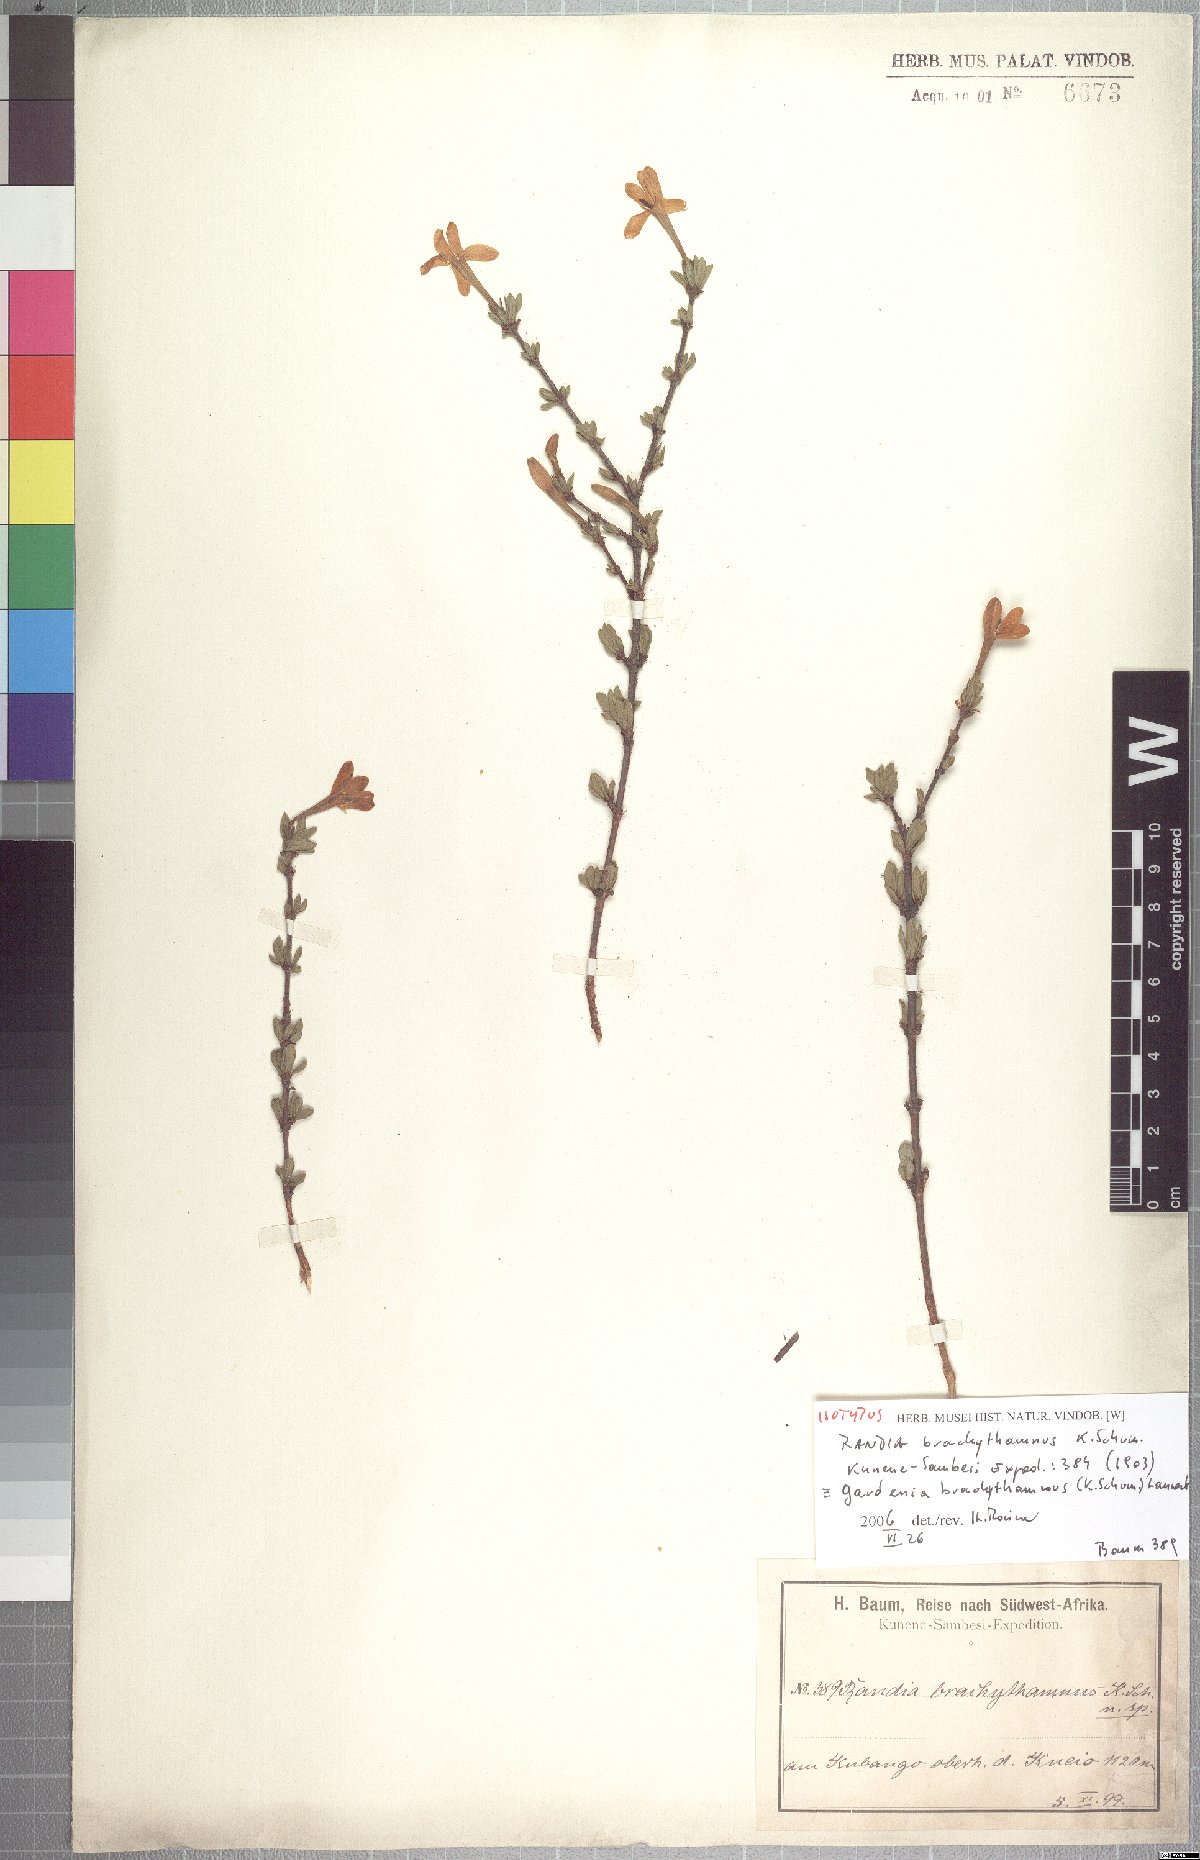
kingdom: Plantae
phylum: Tracheophyta
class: Magnoliopsida
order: Gentianales
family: Rubiaceae
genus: Gardenia
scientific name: Gardenia brachythamnus
